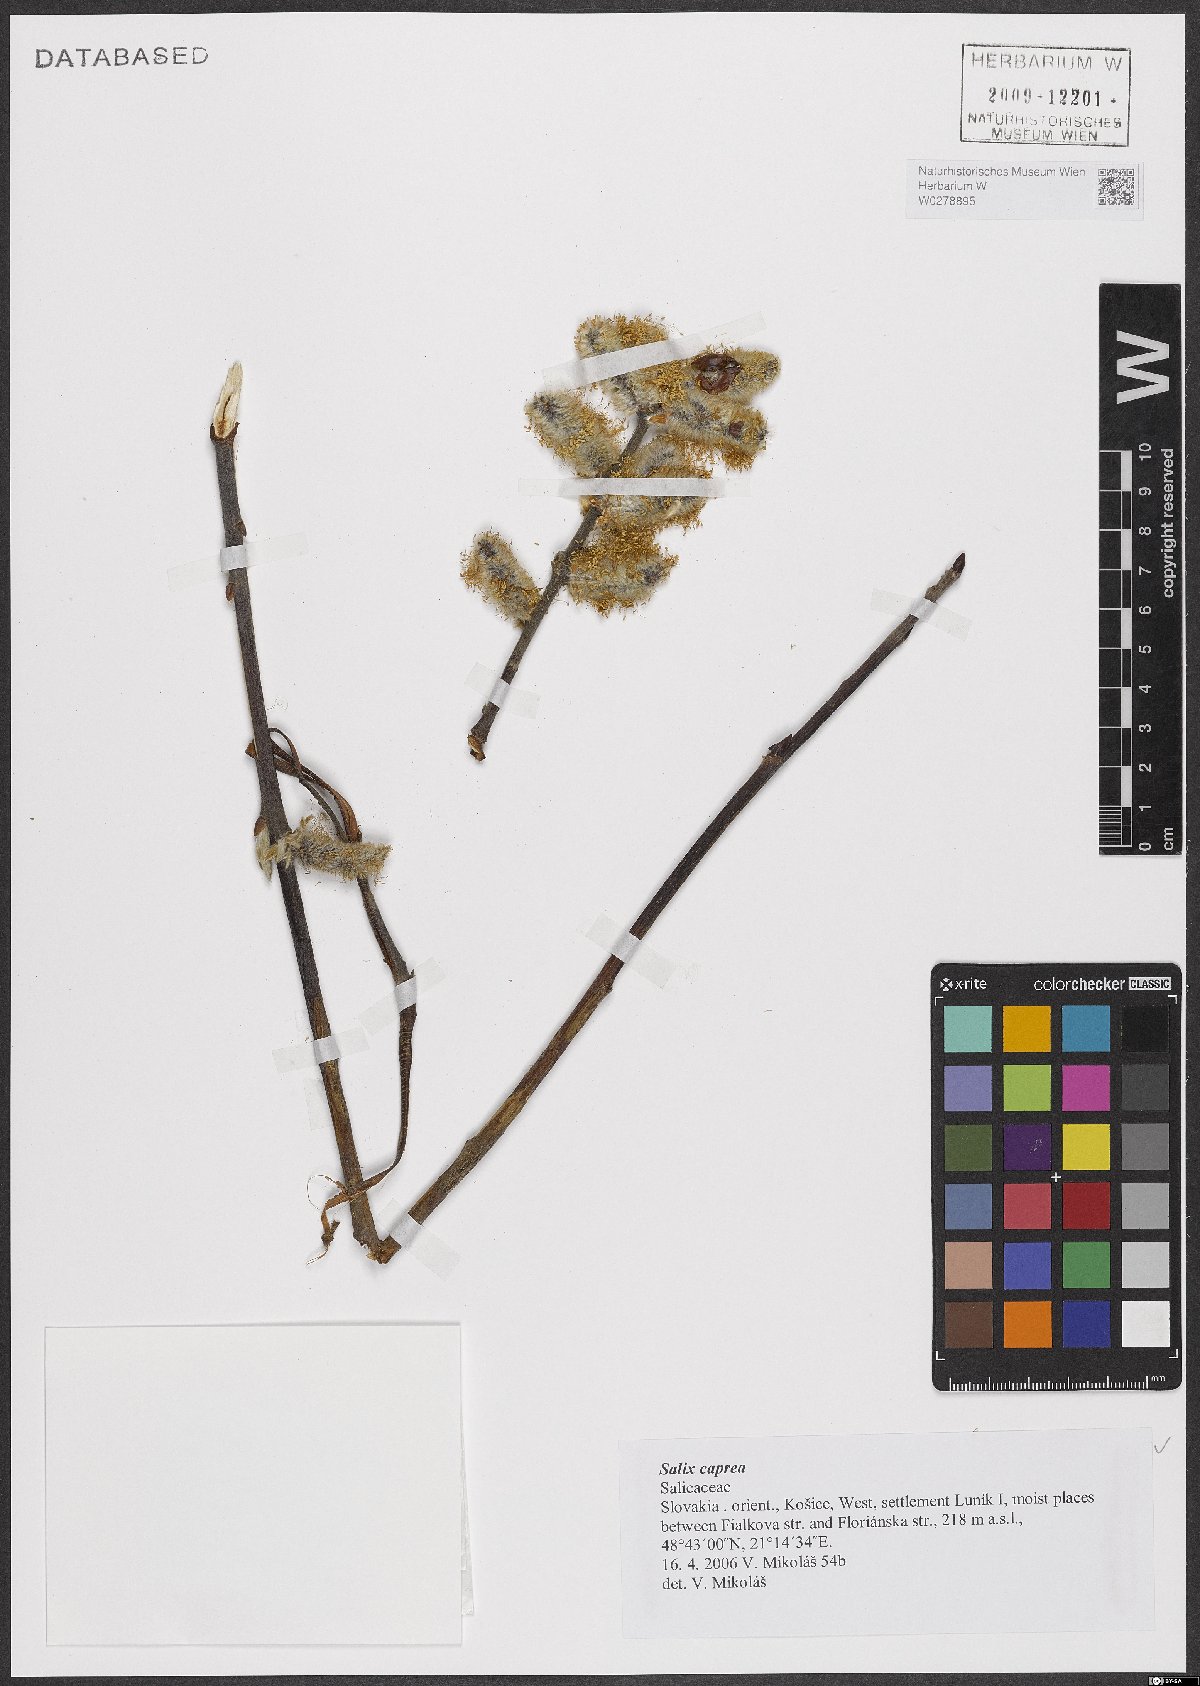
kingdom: Plantae
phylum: Tracheophyta
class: Magnoliopsida
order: Malpighiales
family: Salicaceae
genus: Salix
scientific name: Salix caprea
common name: Goat willow
